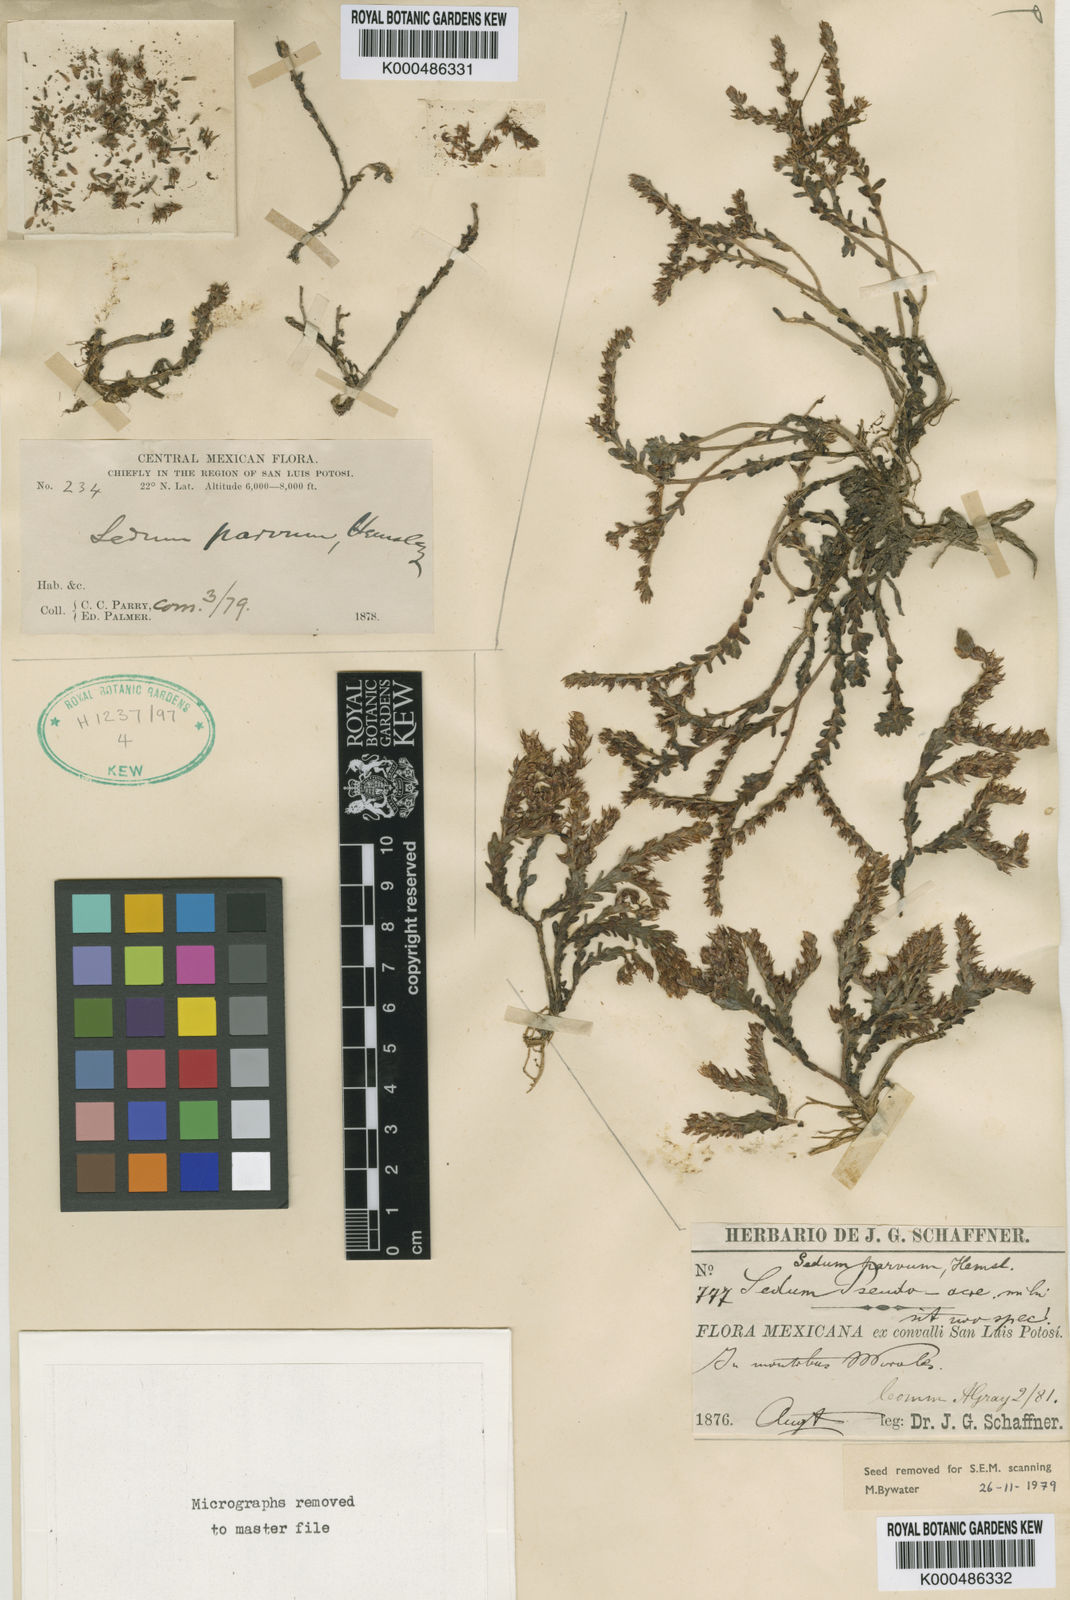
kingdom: Plantae
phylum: Tracheophyta
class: Magnoliopsida
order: Saxifragales
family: Crassulaceae
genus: Sedum
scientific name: Sedum parvum
